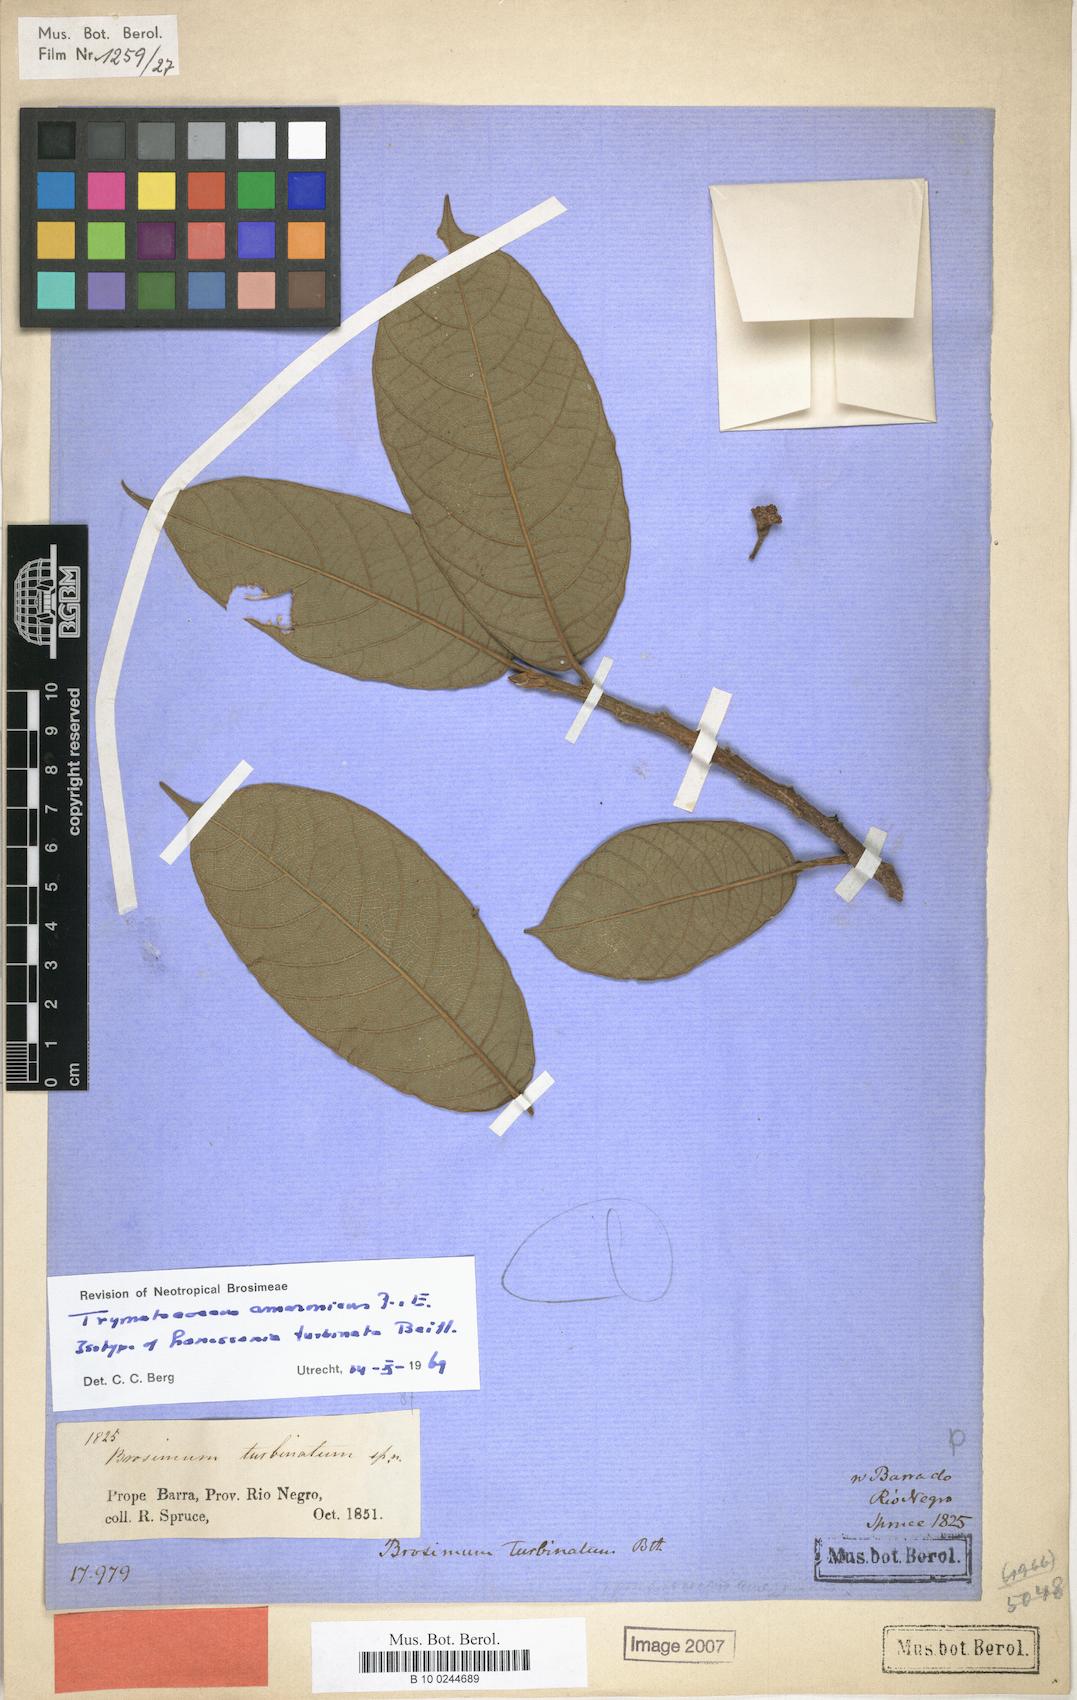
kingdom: Plantae
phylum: Tracheophyta
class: Magnoliopsida
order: Rosales
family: Moraceae
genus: Brosimum
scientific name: Brosimum amazonicum
